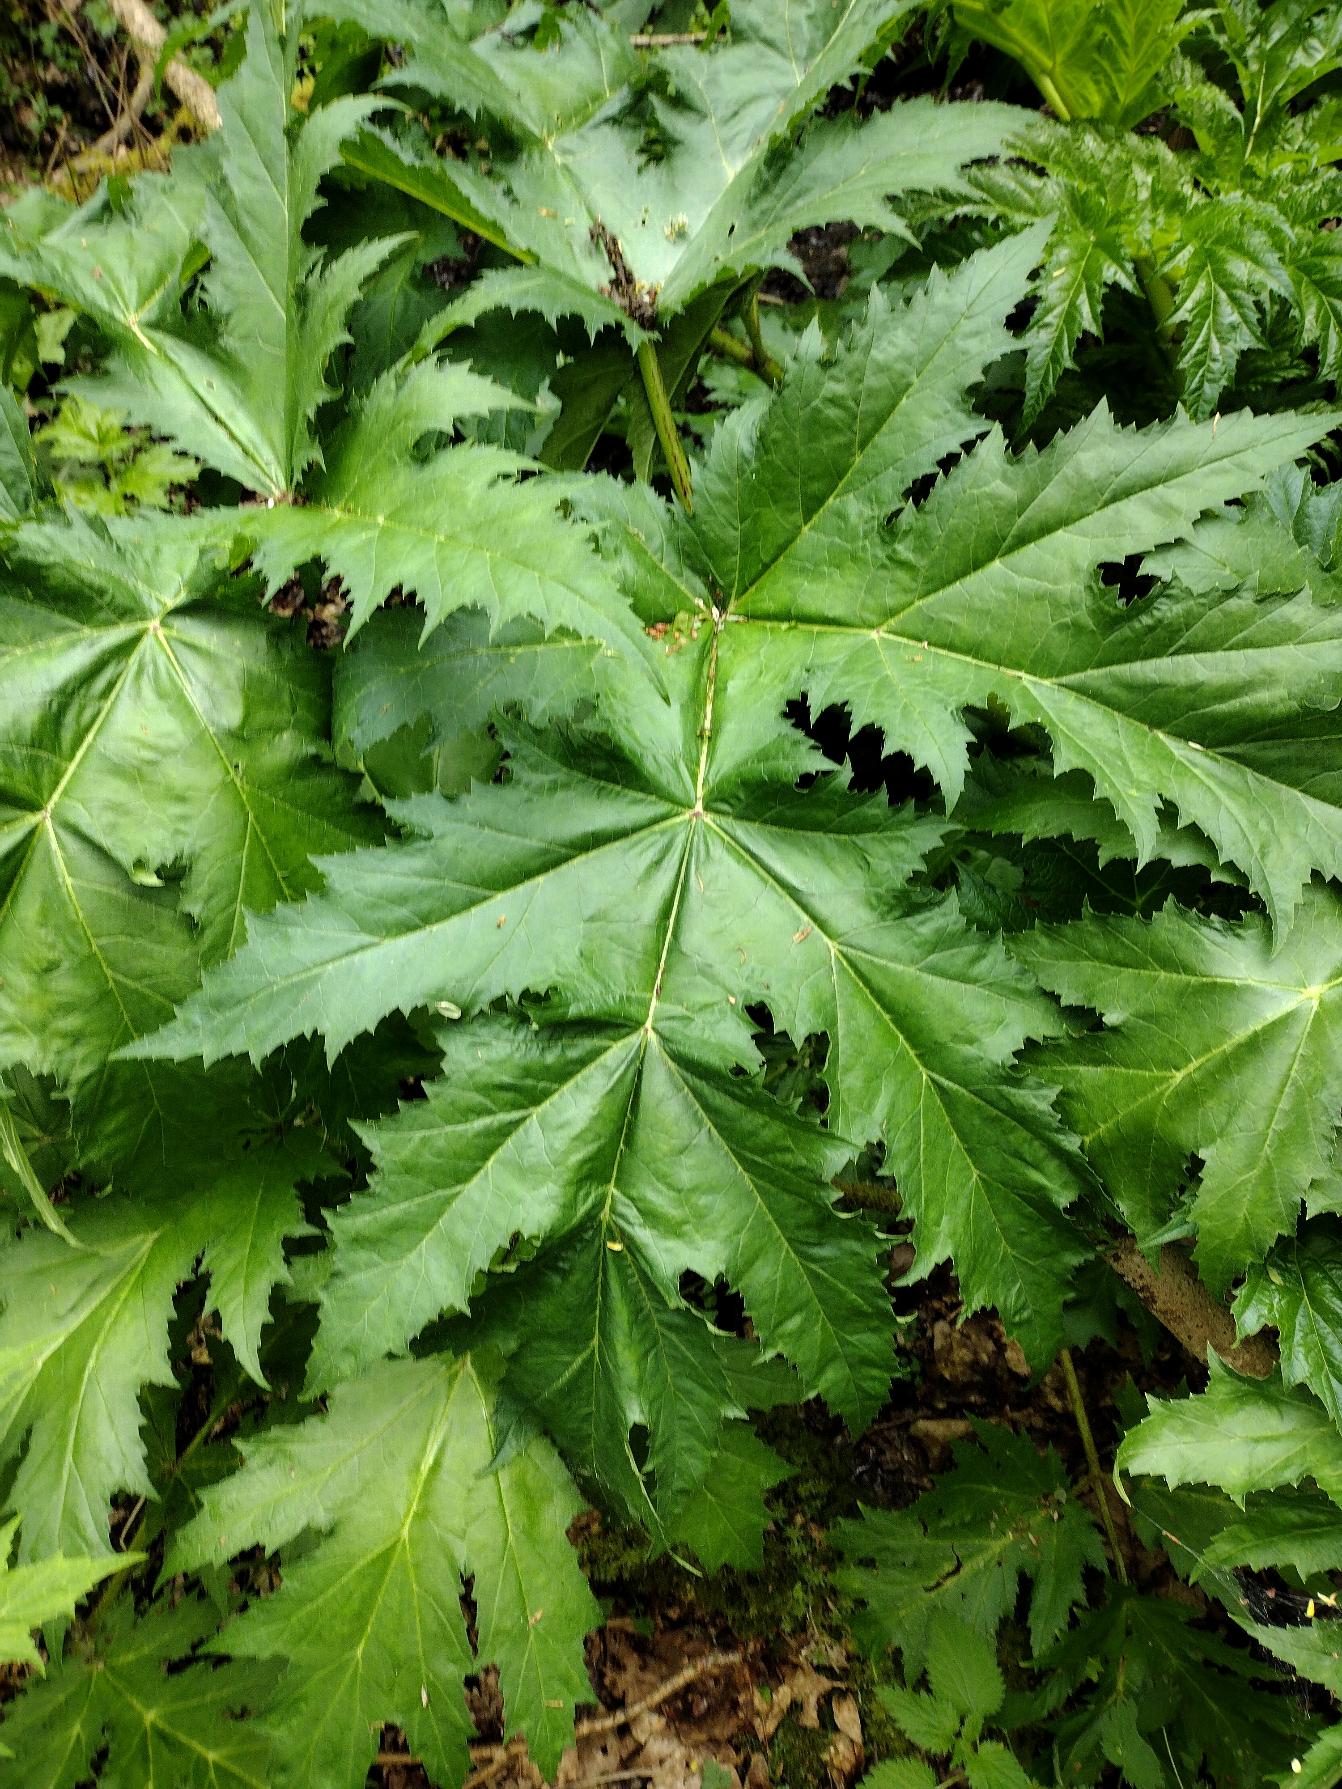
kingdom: Plantae
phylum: Tracheophyta
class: Magnoliopsida
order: Apiales
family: Apiaceae
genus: Heracleum
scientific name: Heracleum mantegazzianum
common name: Kæmpe-bjørneklo
